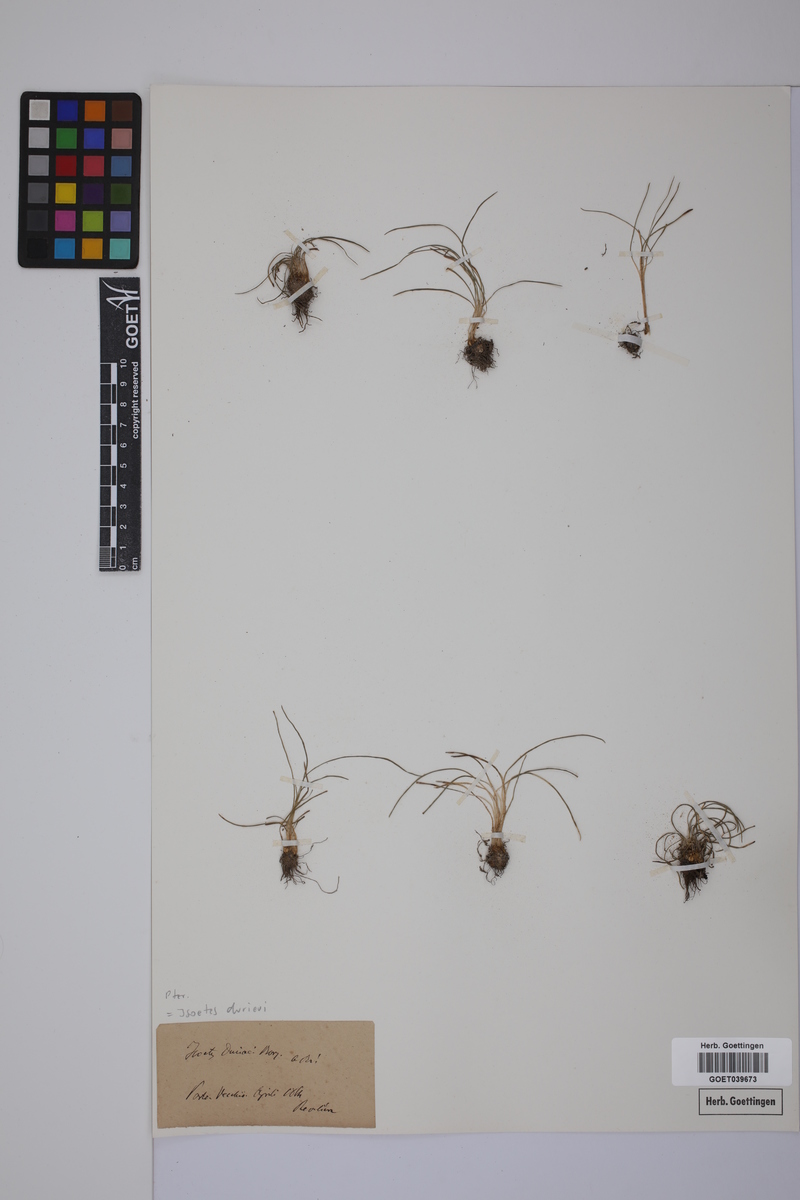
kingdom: Plantae
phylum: Tracheophyta
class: Lycopodiopsida
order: Isoetales
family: Isoetaceae
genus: Isoetes
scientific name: Isoetes duriei
